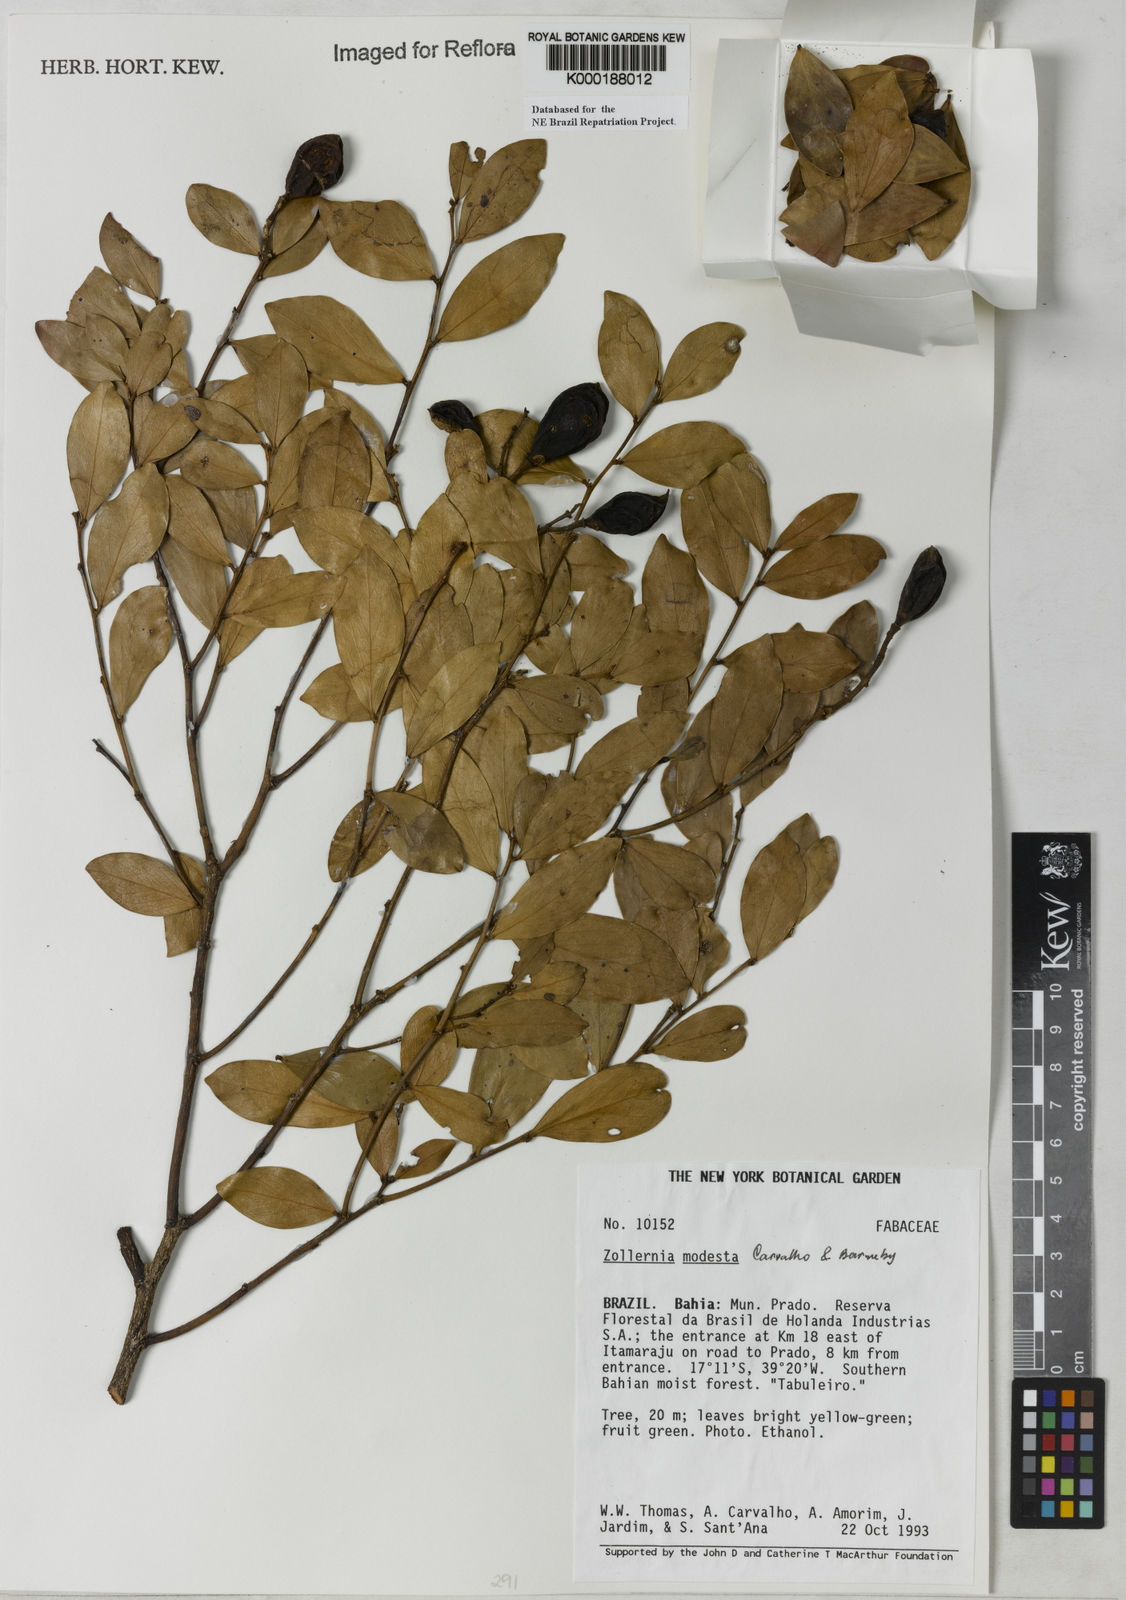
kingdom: Plantae
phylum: Tracheophyta
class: Magnoliopsida
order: Fabales
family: Fabaceae
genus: Zollernia
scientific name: Zollernia modesta
